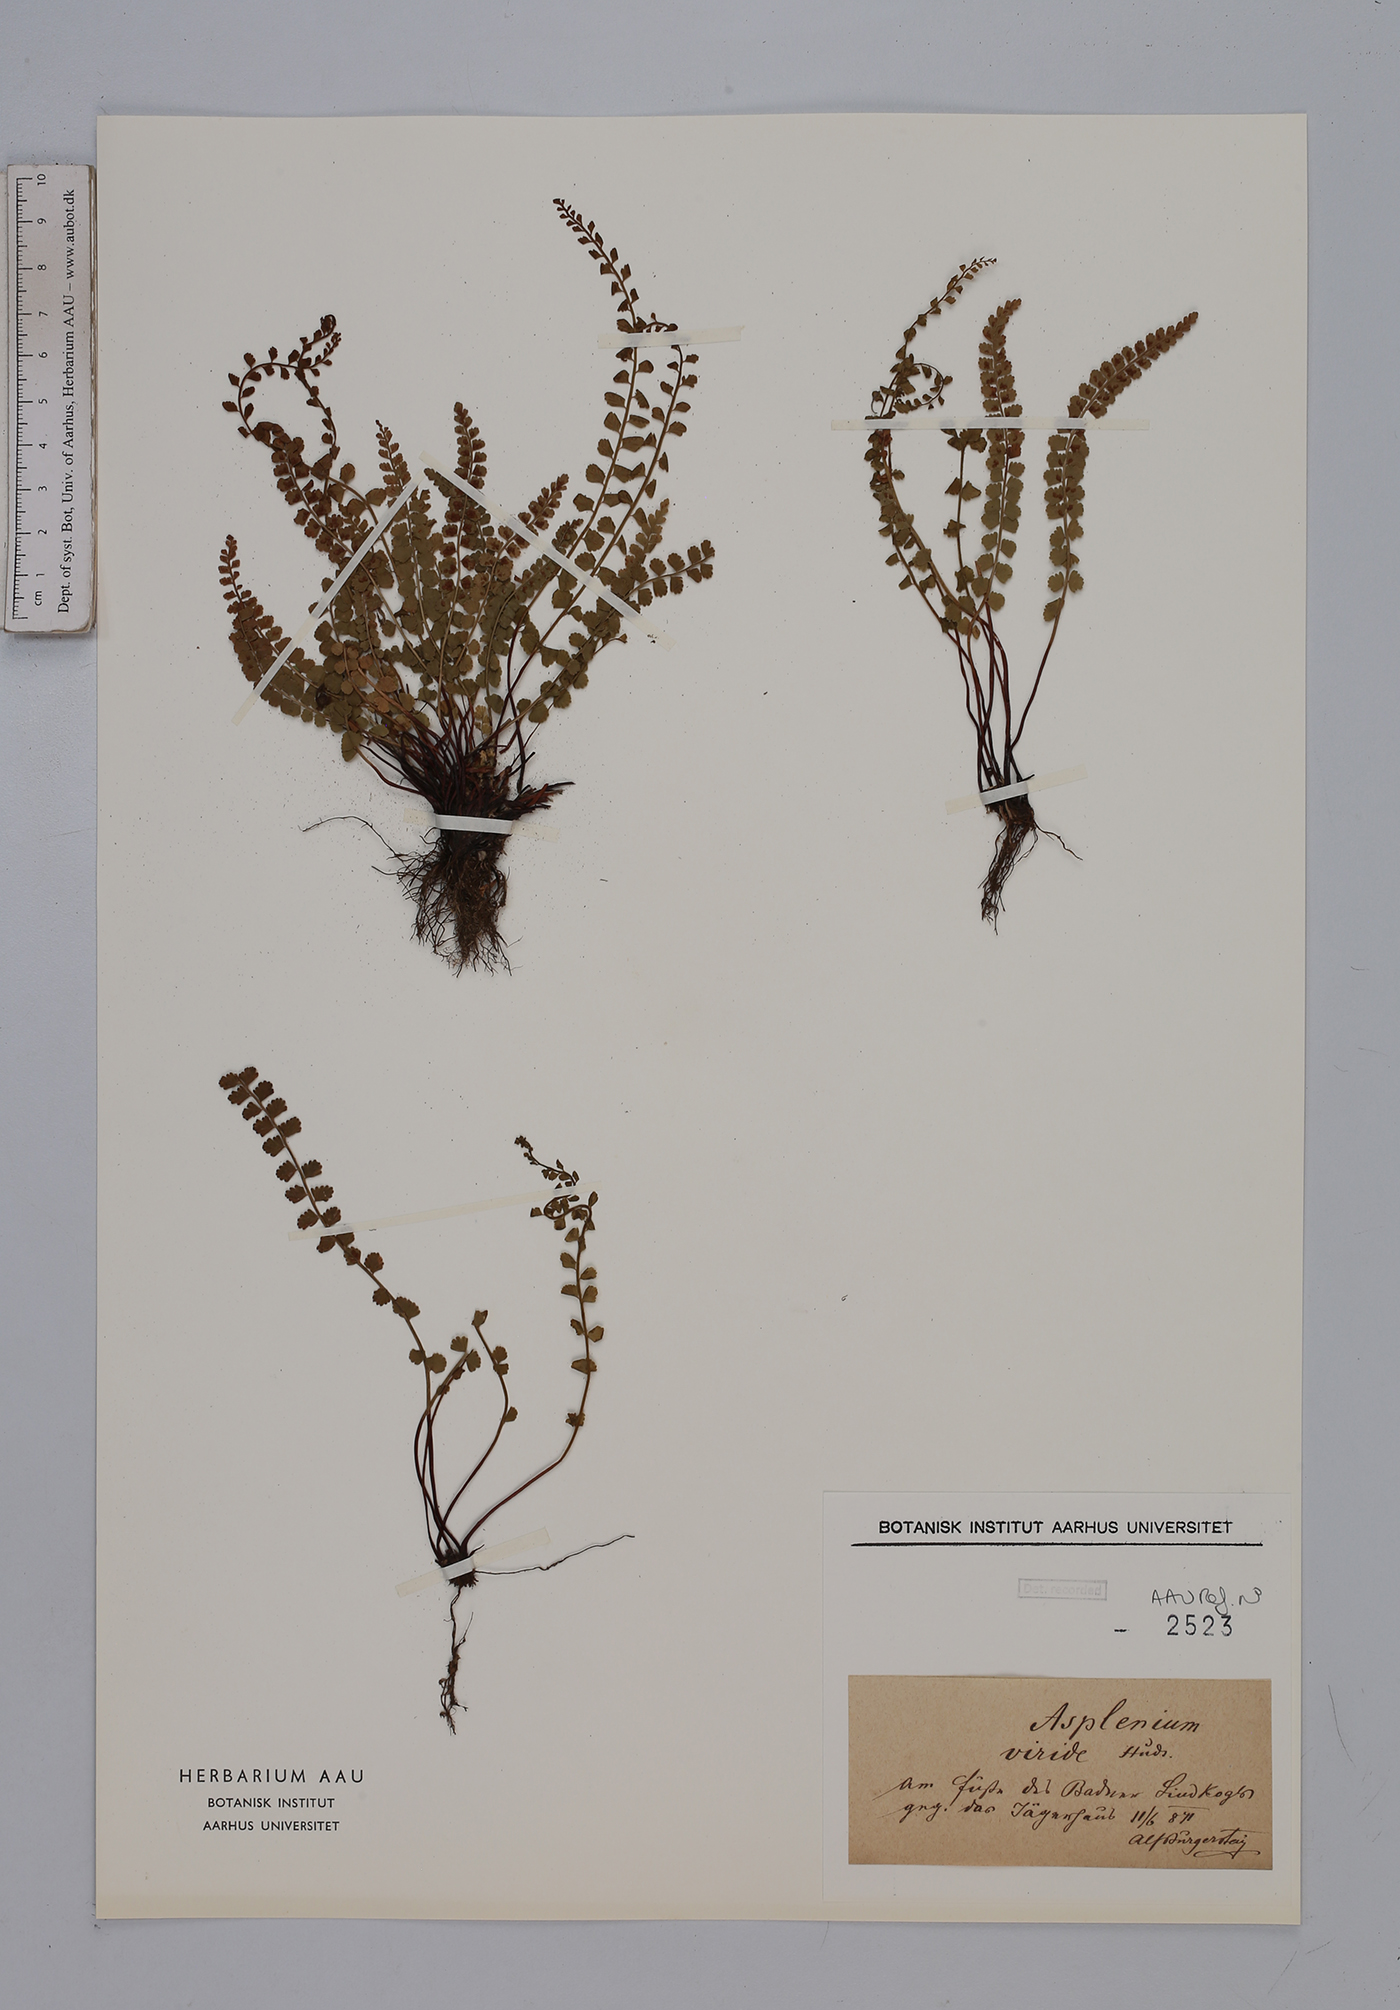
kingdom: Plantae
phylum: Tracheophyta
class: Polypodiopsida
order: Polypodiales
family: Aspleniaceae
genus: Asplenium
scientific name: Asplenium viride
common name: Green spleenwort
